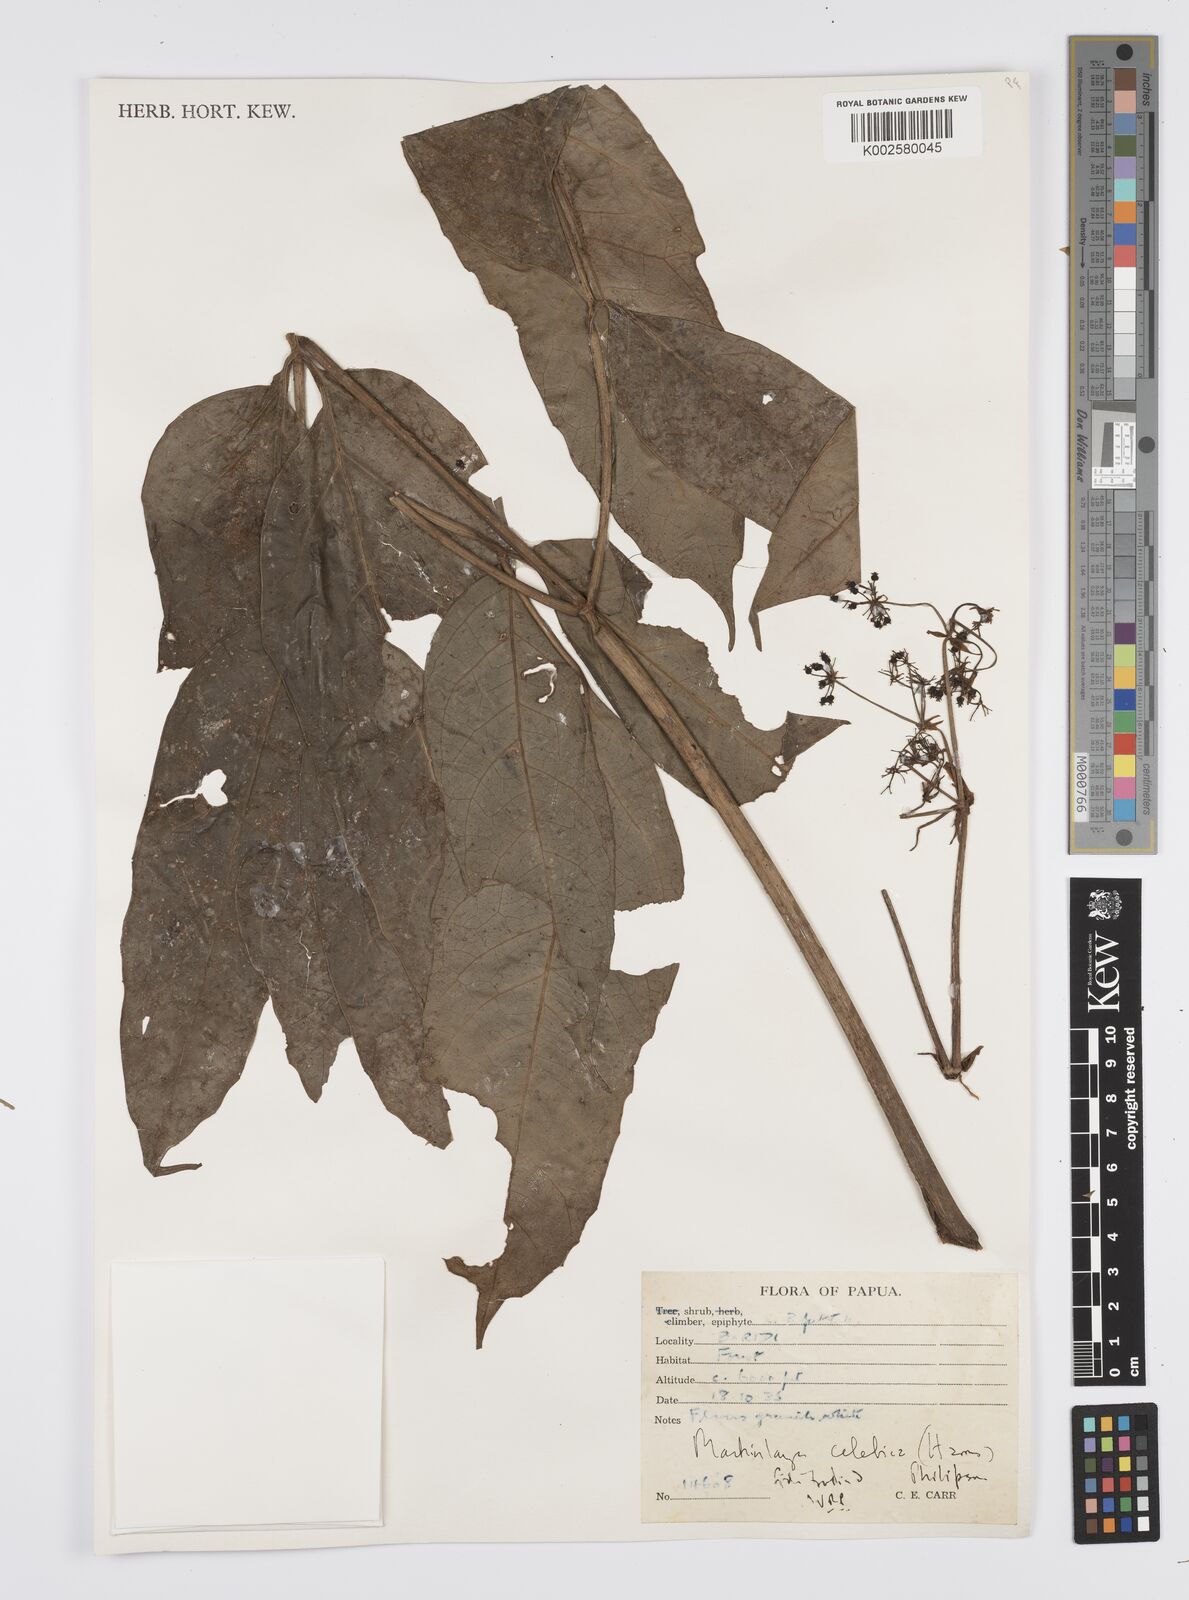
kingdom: Plantae
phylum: Tracheophyta
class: Magnoliopsida
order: Apiales
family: Apiaceae
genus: Mackinlaya
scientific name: Mackinlaya celebica
